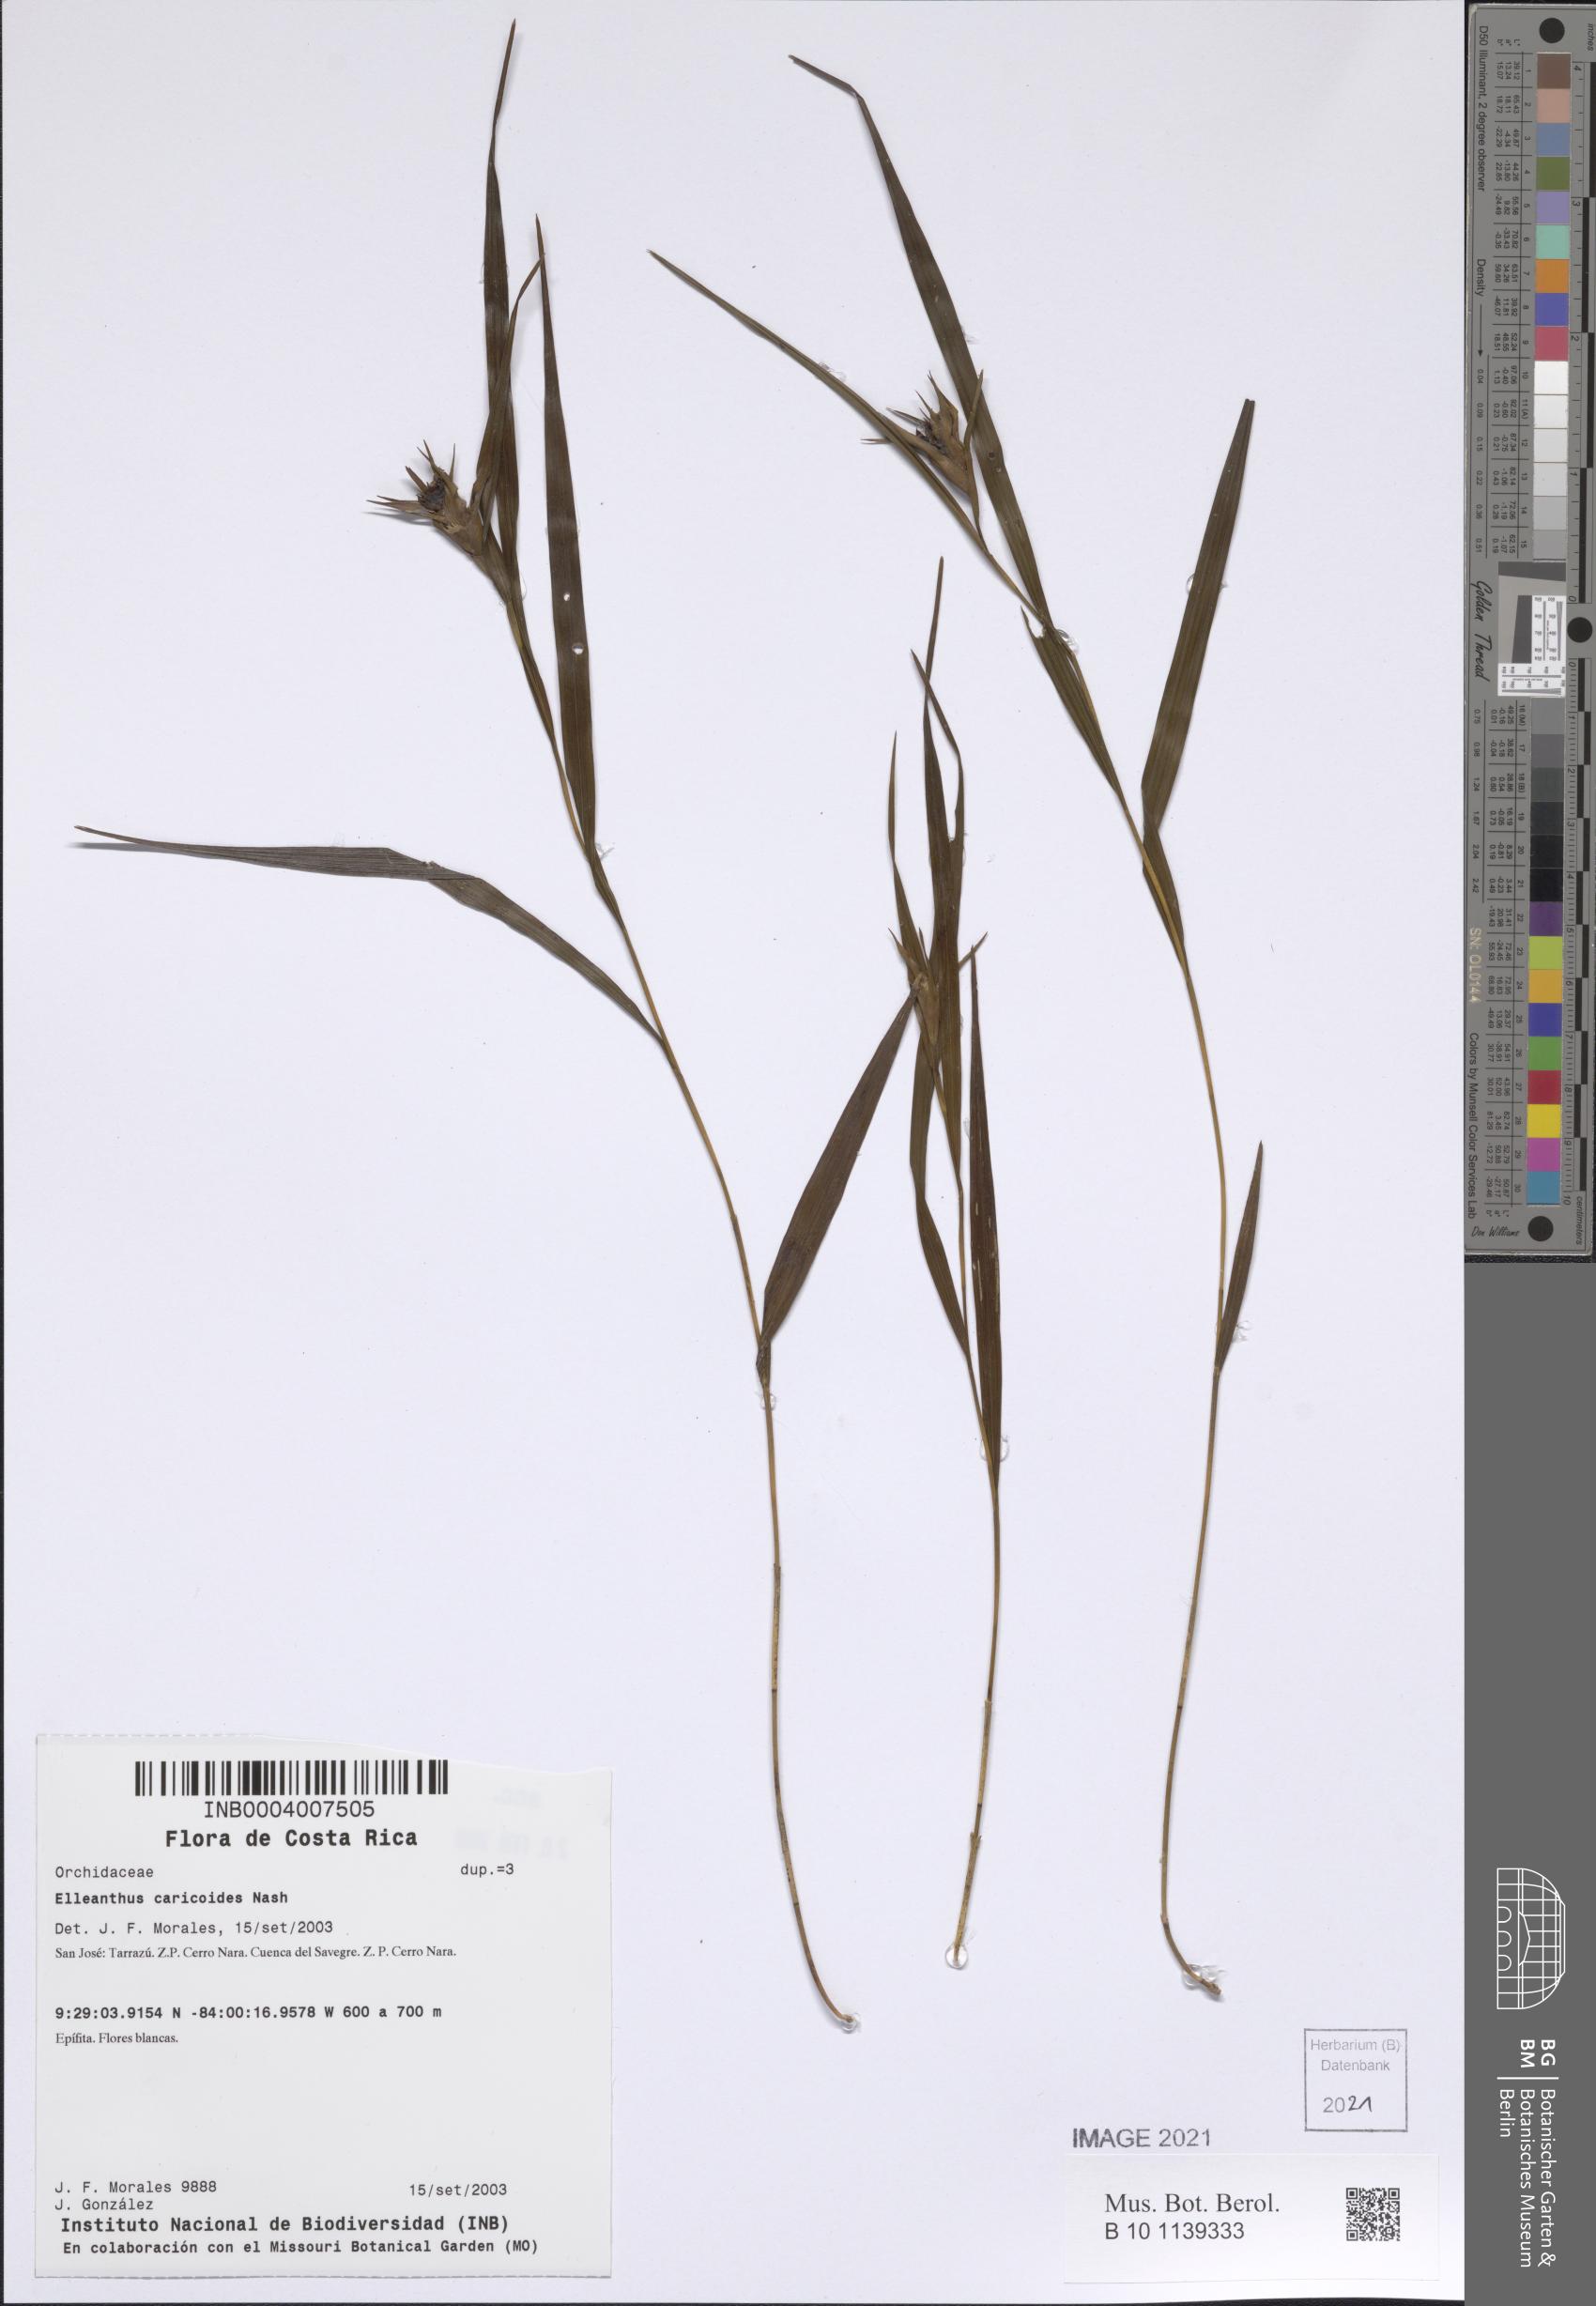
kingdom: Plantae
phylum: Tracheophyta
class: Liliopsida
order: Asparagales
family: Orchidaceae
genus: Elleanthus
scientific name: Elleanthus caricoides
